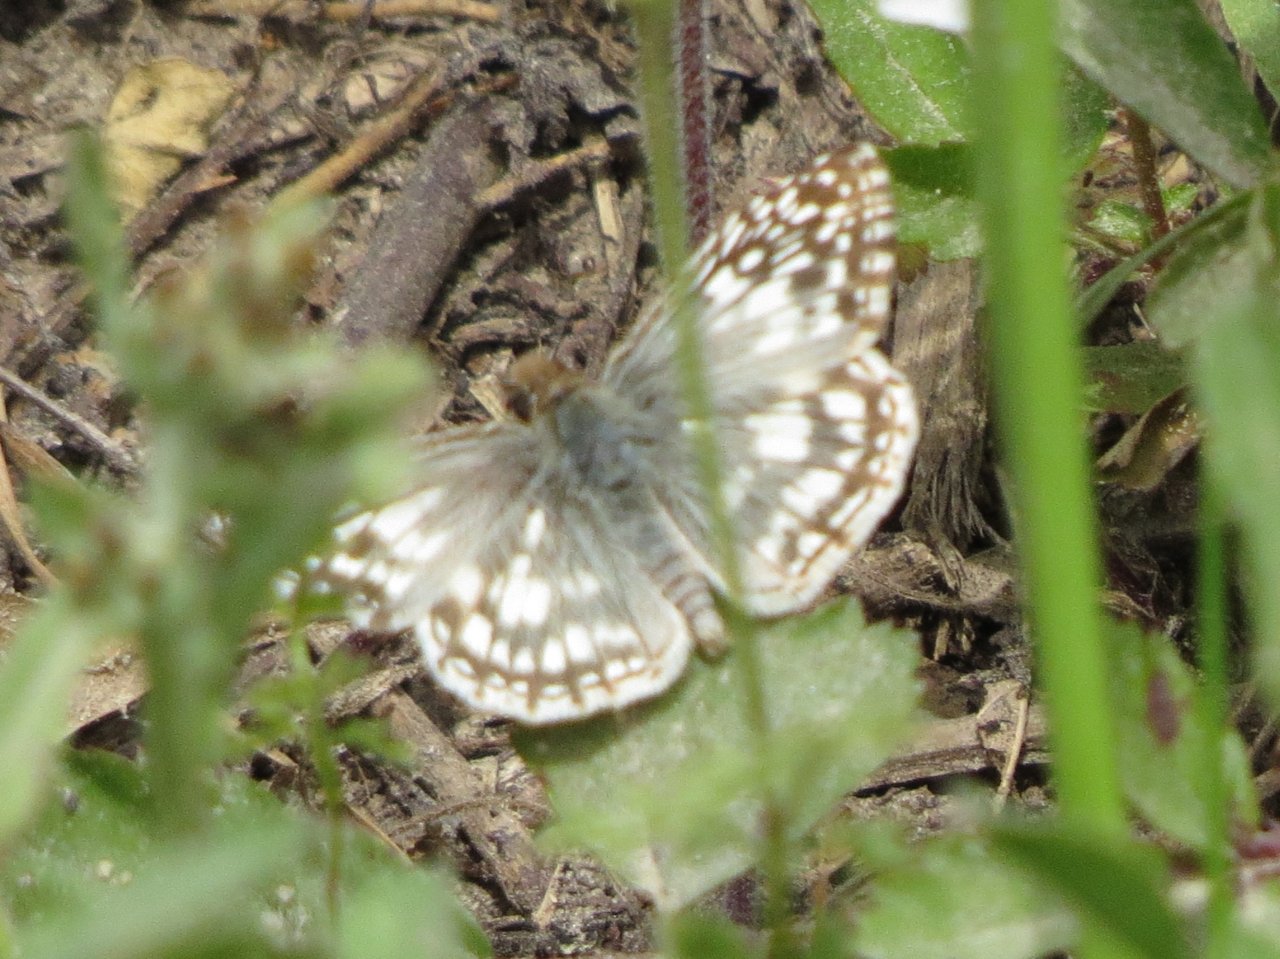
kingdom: Animalia
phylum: Arthropoda
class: Insecta
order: Lepidoptera
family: Hesperiidae
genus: Pyrgus
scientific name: Pyrgus oileus
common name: Tropical Checkered-Skipper
